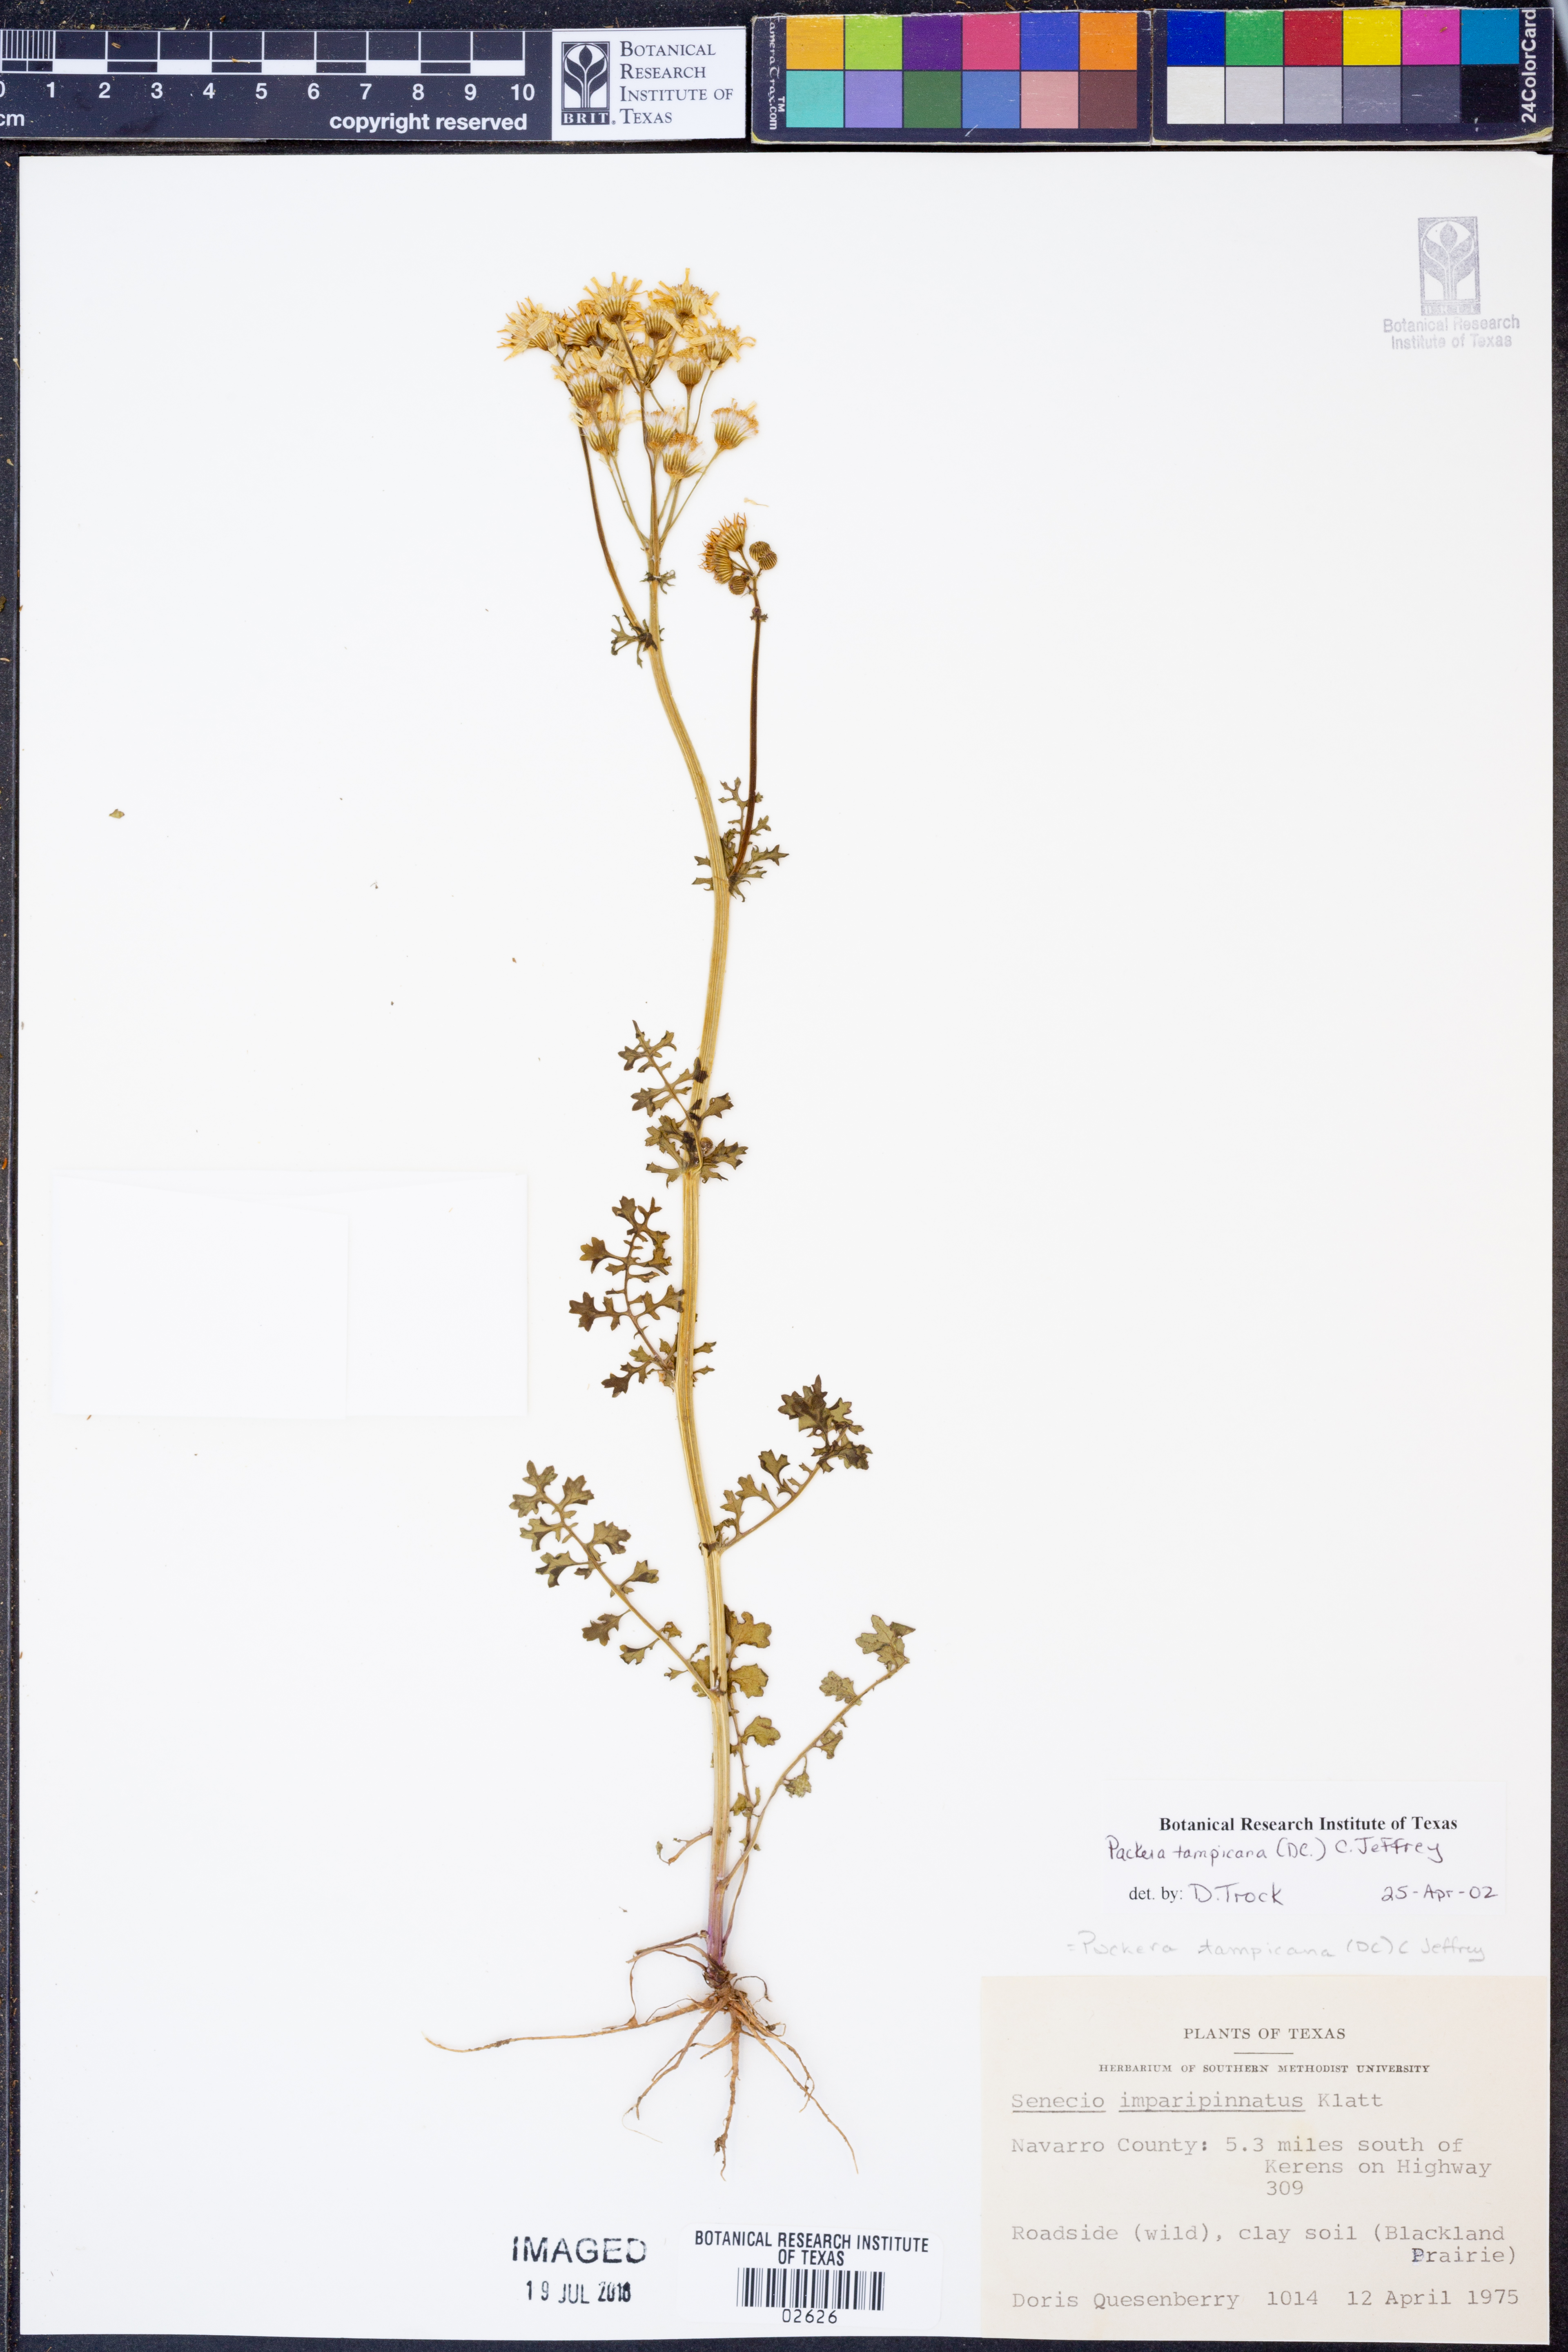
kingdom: Plantae
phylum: Tracheophyta
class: Magnoliopsida
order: Asterales
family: Asteraceae
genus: Packera
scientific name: Packera tampicana
